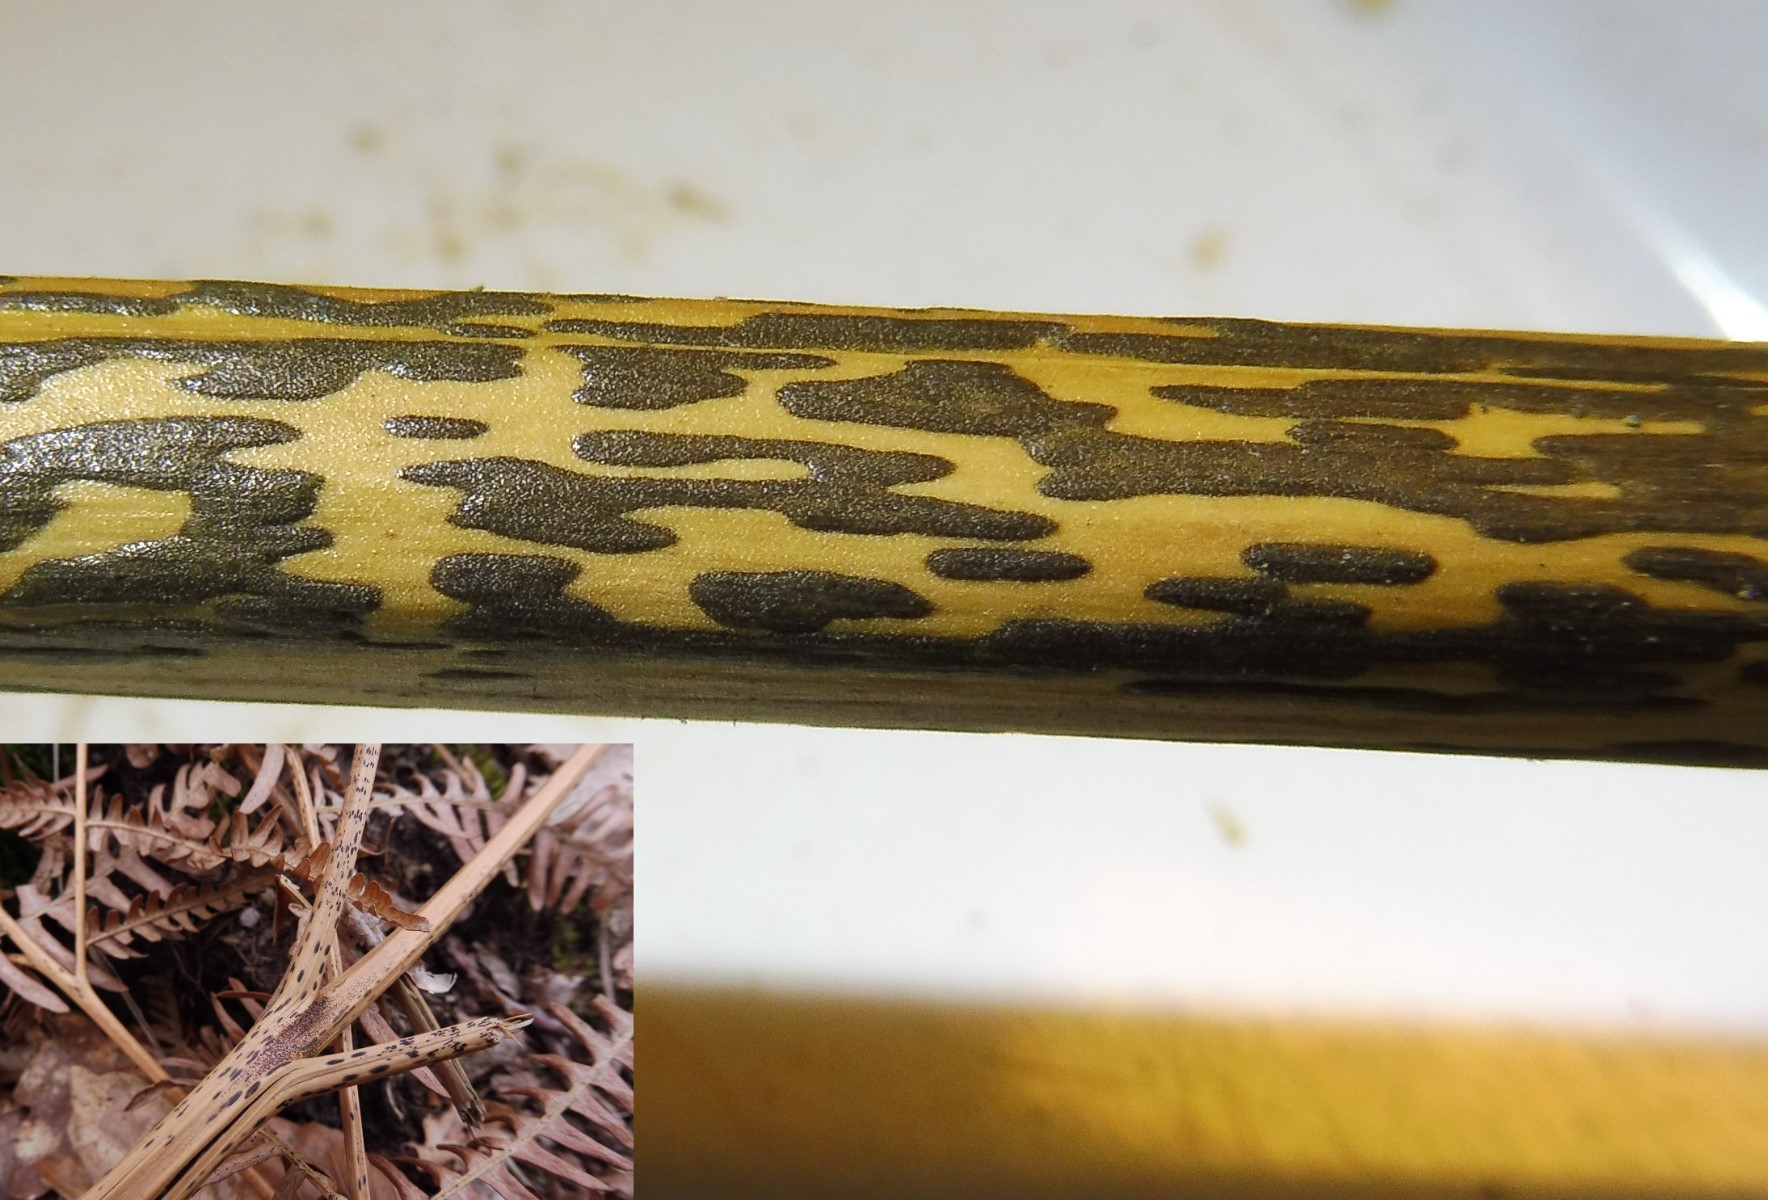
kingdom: Fungi
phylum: Ascomycota
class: Dothideomycetes
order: Pleosporales
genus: Rhopographus
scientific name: Rhopographus filicinus
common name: Bracken map
